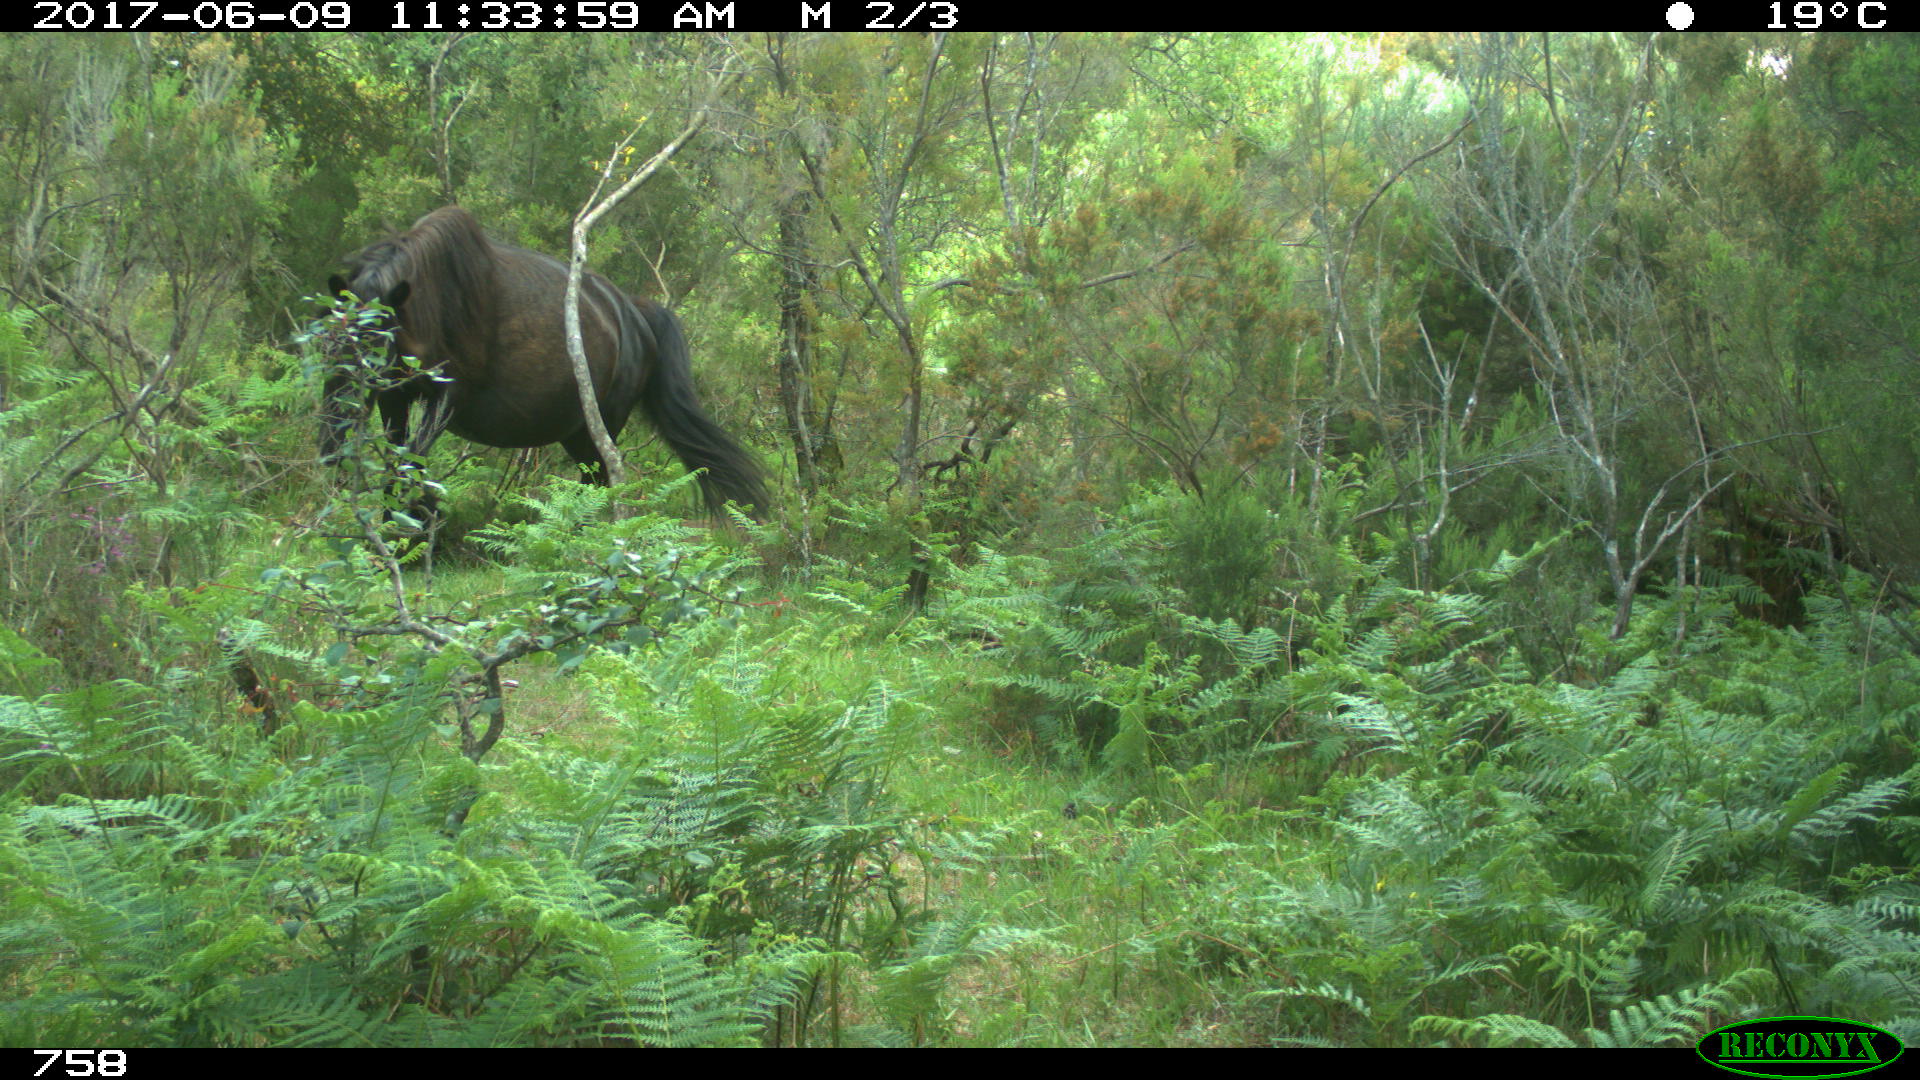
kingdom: Animalia
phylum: Chordata
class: Mammalia
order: Perissodactyla
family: Equidae
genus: Equus
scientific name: Equus caballus
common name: Horse
